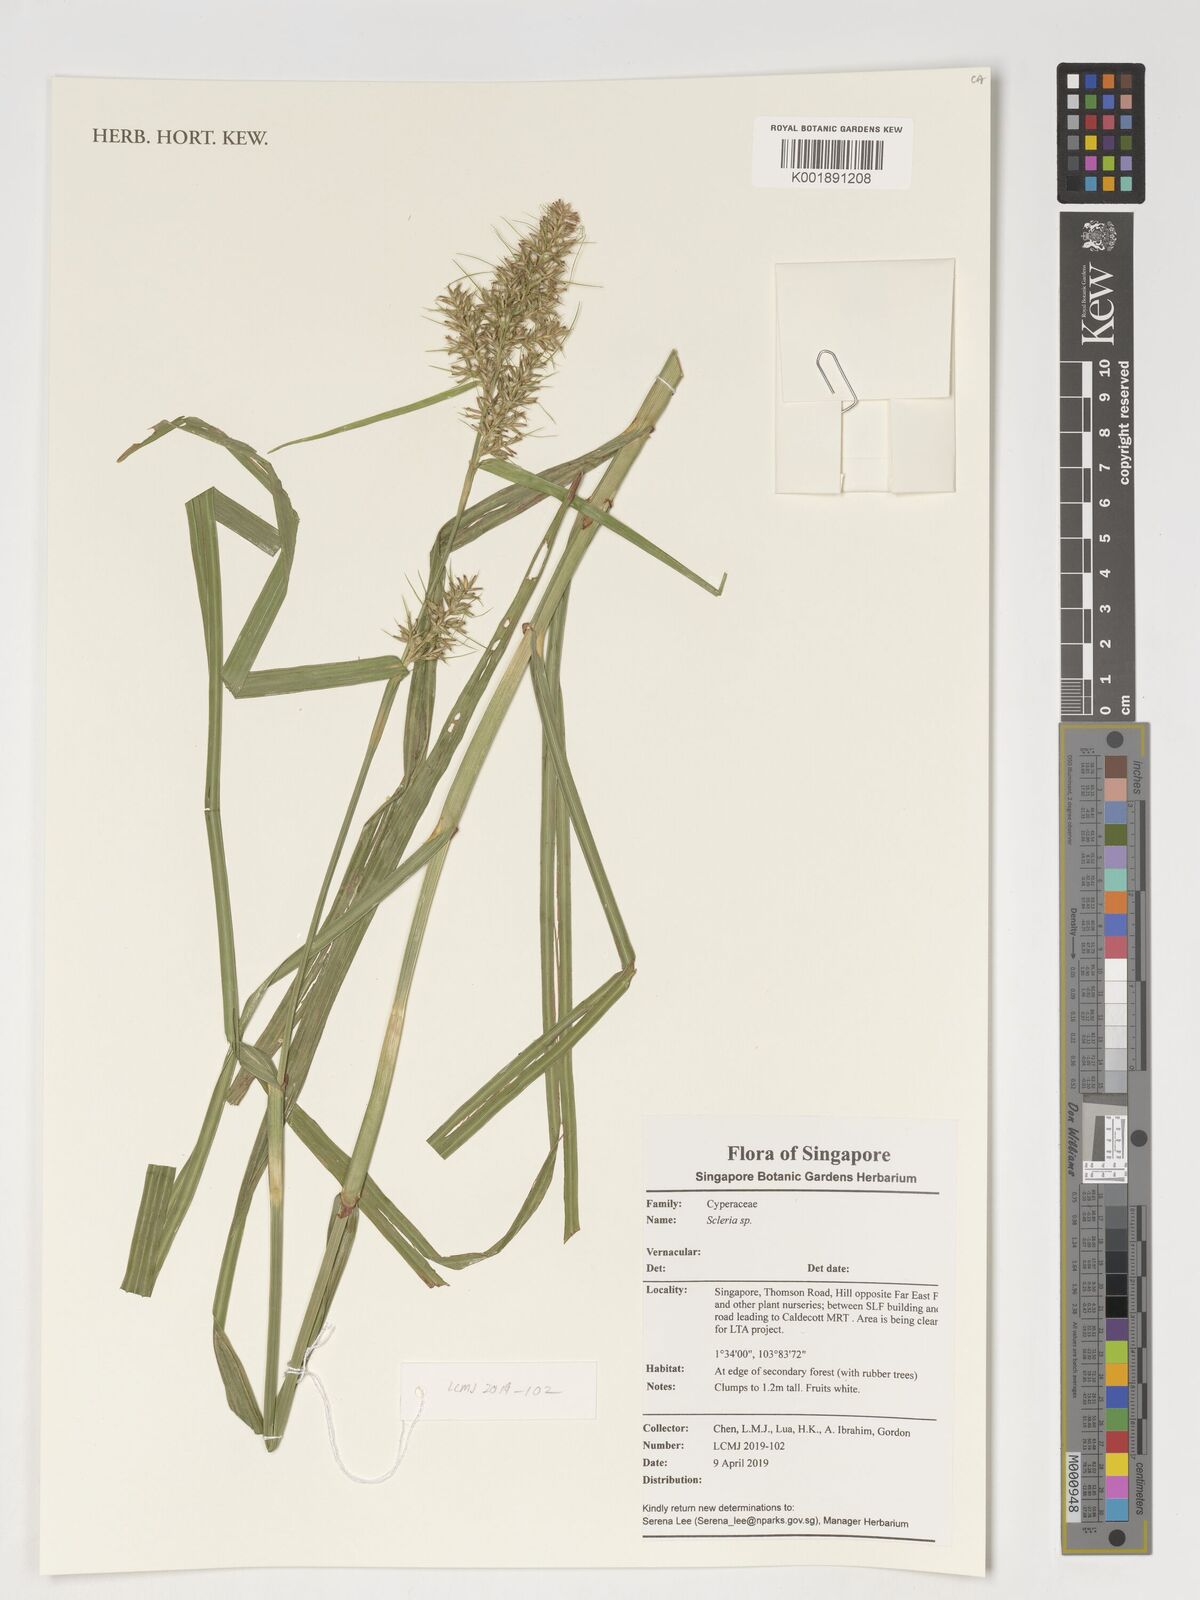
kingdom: Plantae
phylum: Tracheophyta
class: Liliopsida
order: Poales
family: Cyperaceae
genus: Scleria
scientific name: Scleria
